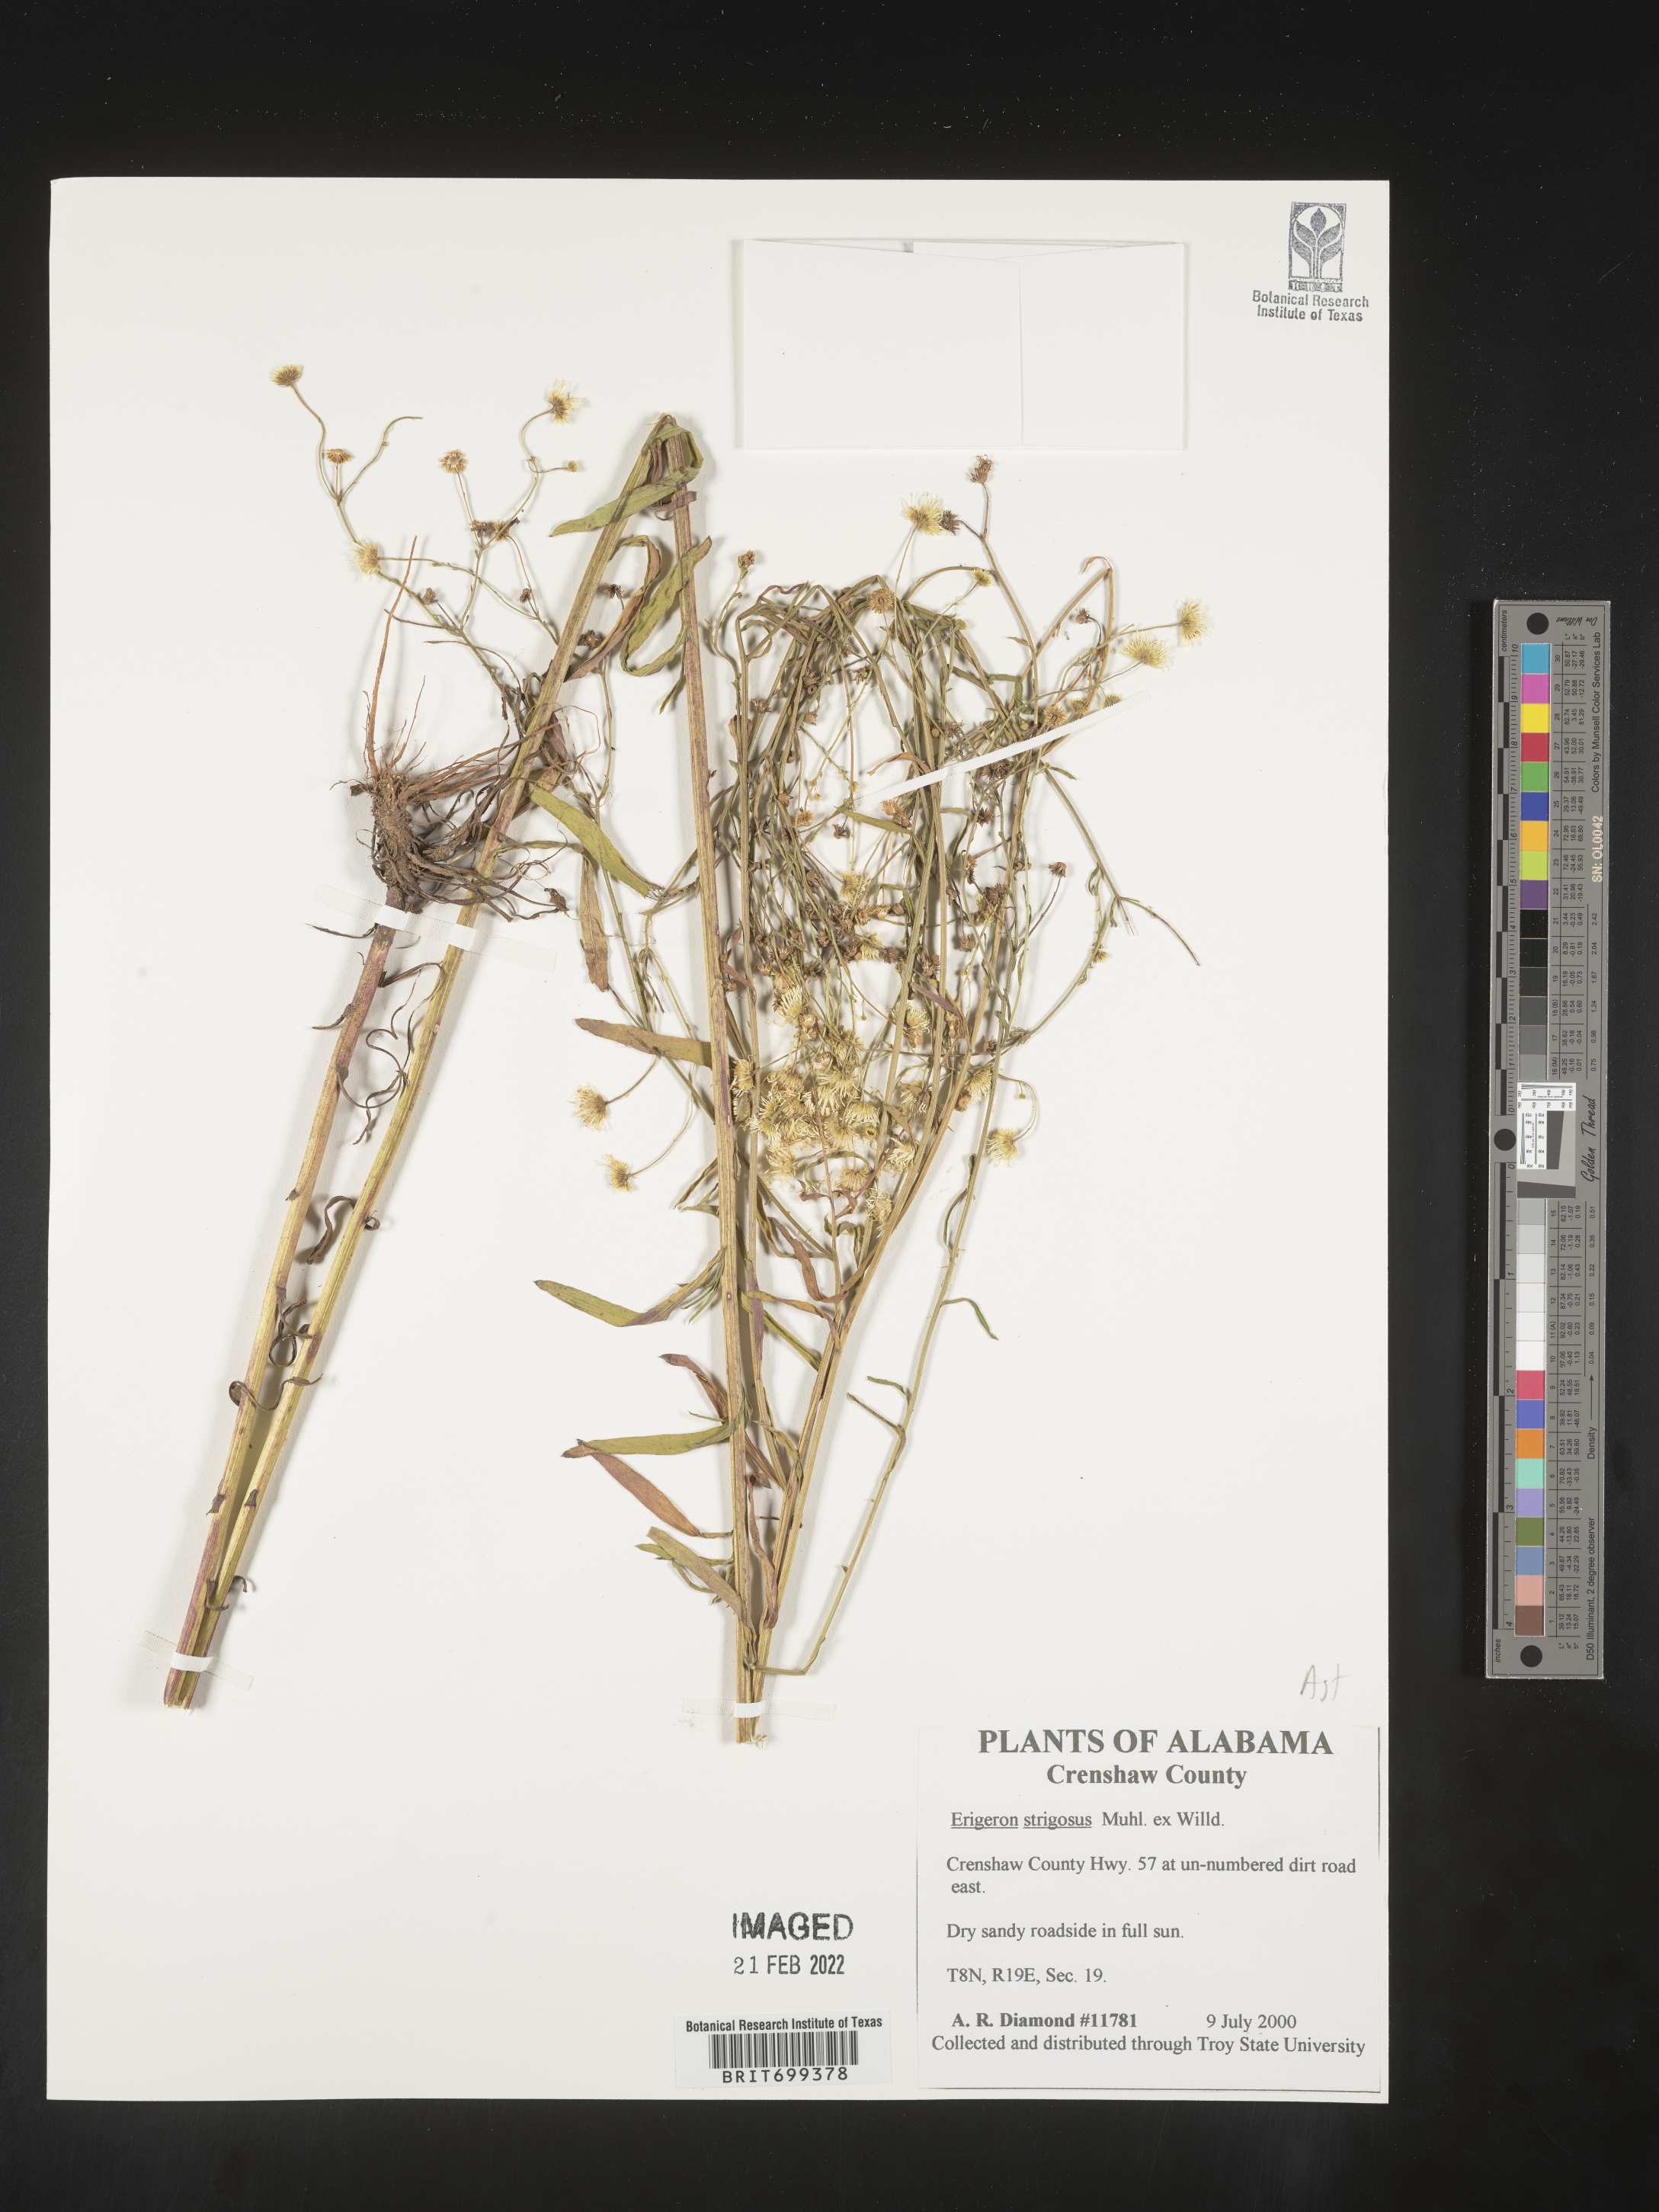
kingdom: Plantae
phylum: Tracheophyta
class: Magnoliopsida
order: Asterales
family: Asteraceae
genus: Erigeron
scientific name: Erigeron strigosus
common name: Common eastern fleabane
